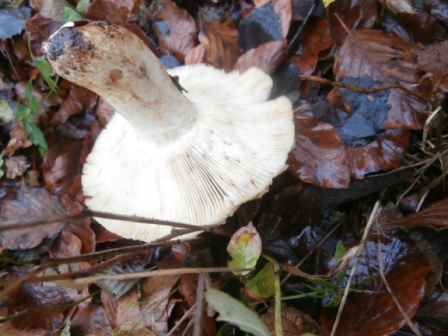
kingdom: Fungi
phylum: Basidiomycota
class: Agaricomycetes
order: Russulales
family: Russulaceae
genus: Lactarius
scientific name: Lactarius pallidus
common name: bleg mælkehat
